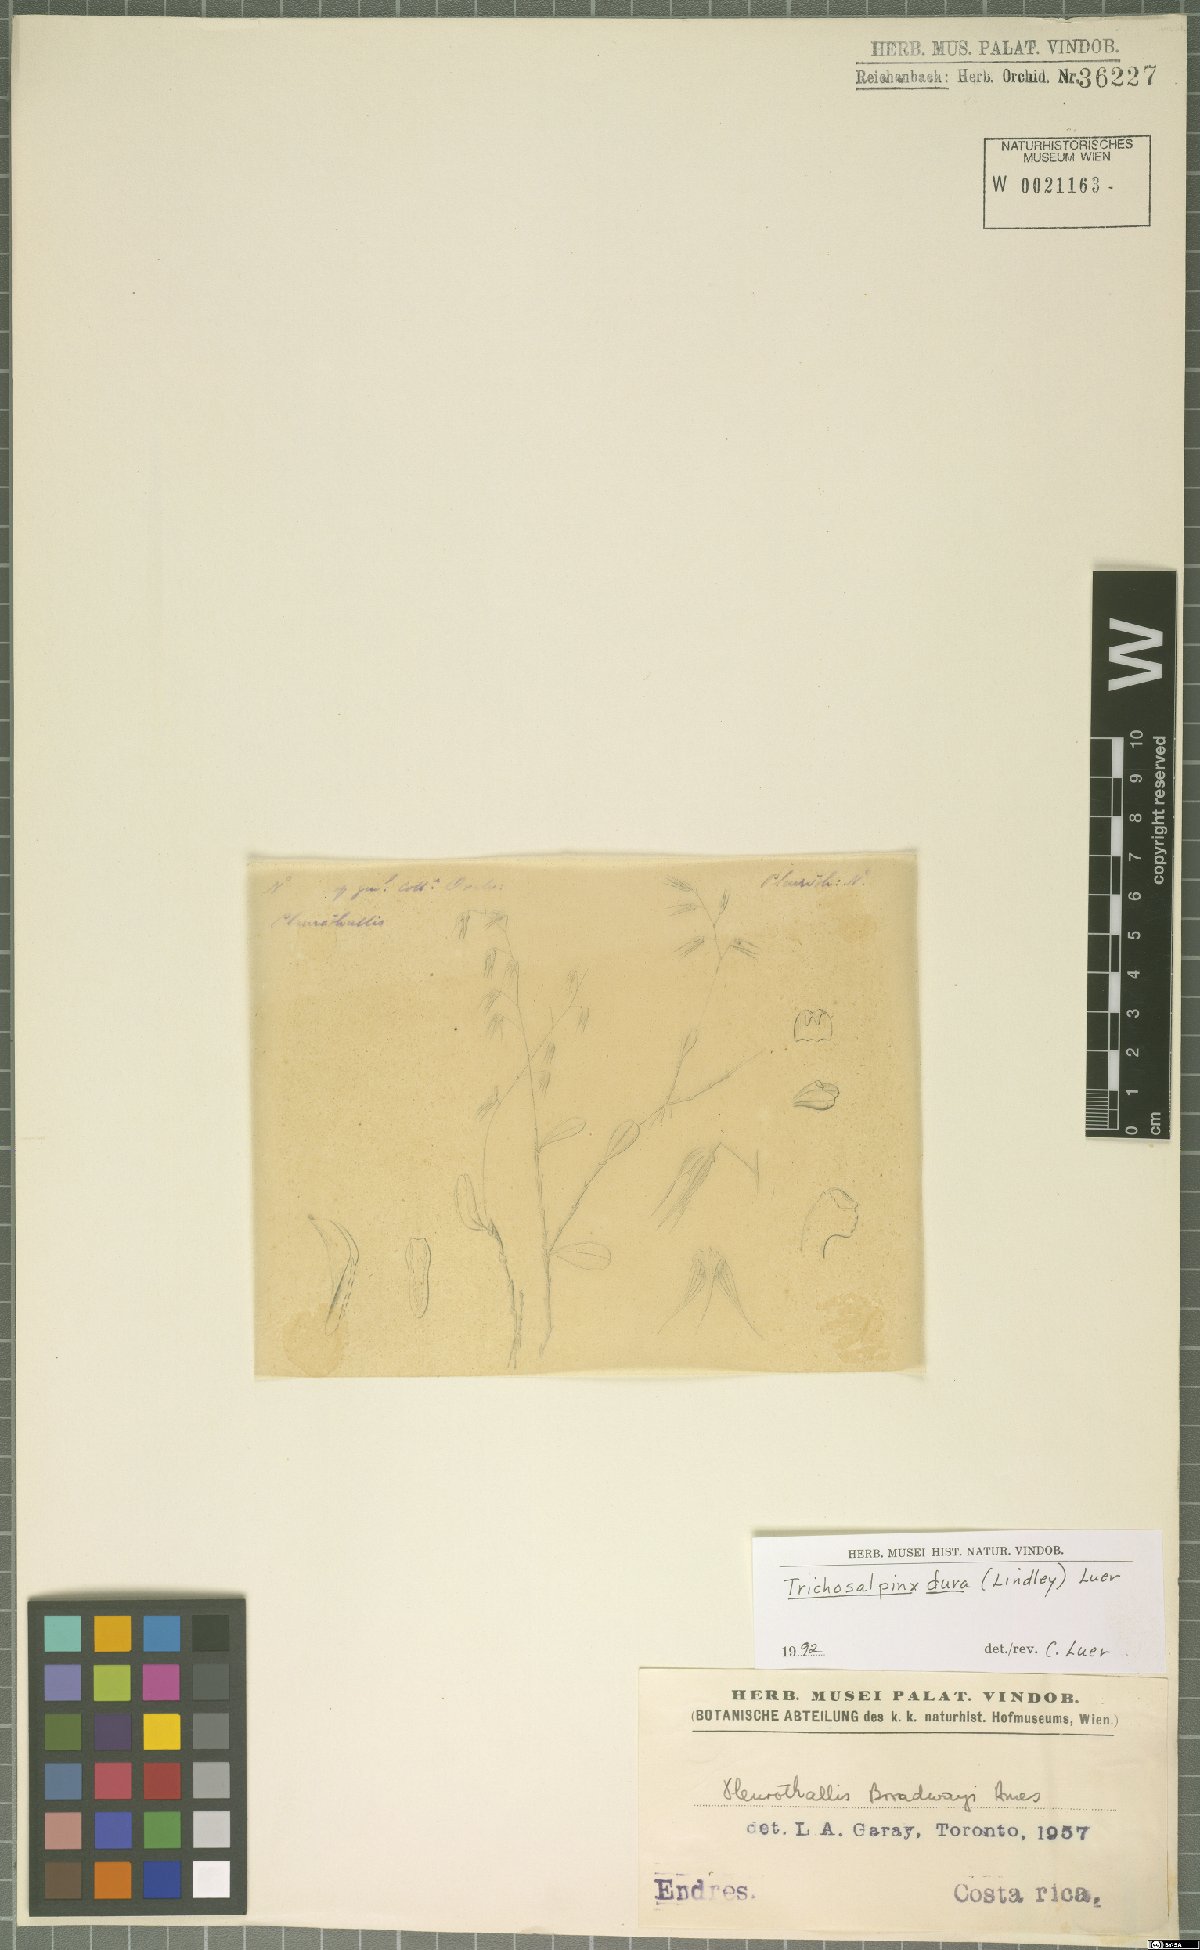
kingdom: Plantae
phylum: Tracheophyta
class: Liliopsida
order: Asparagales
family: Orchidaceae
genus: Trichosalpinx
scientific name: Trichosalpinx dura
